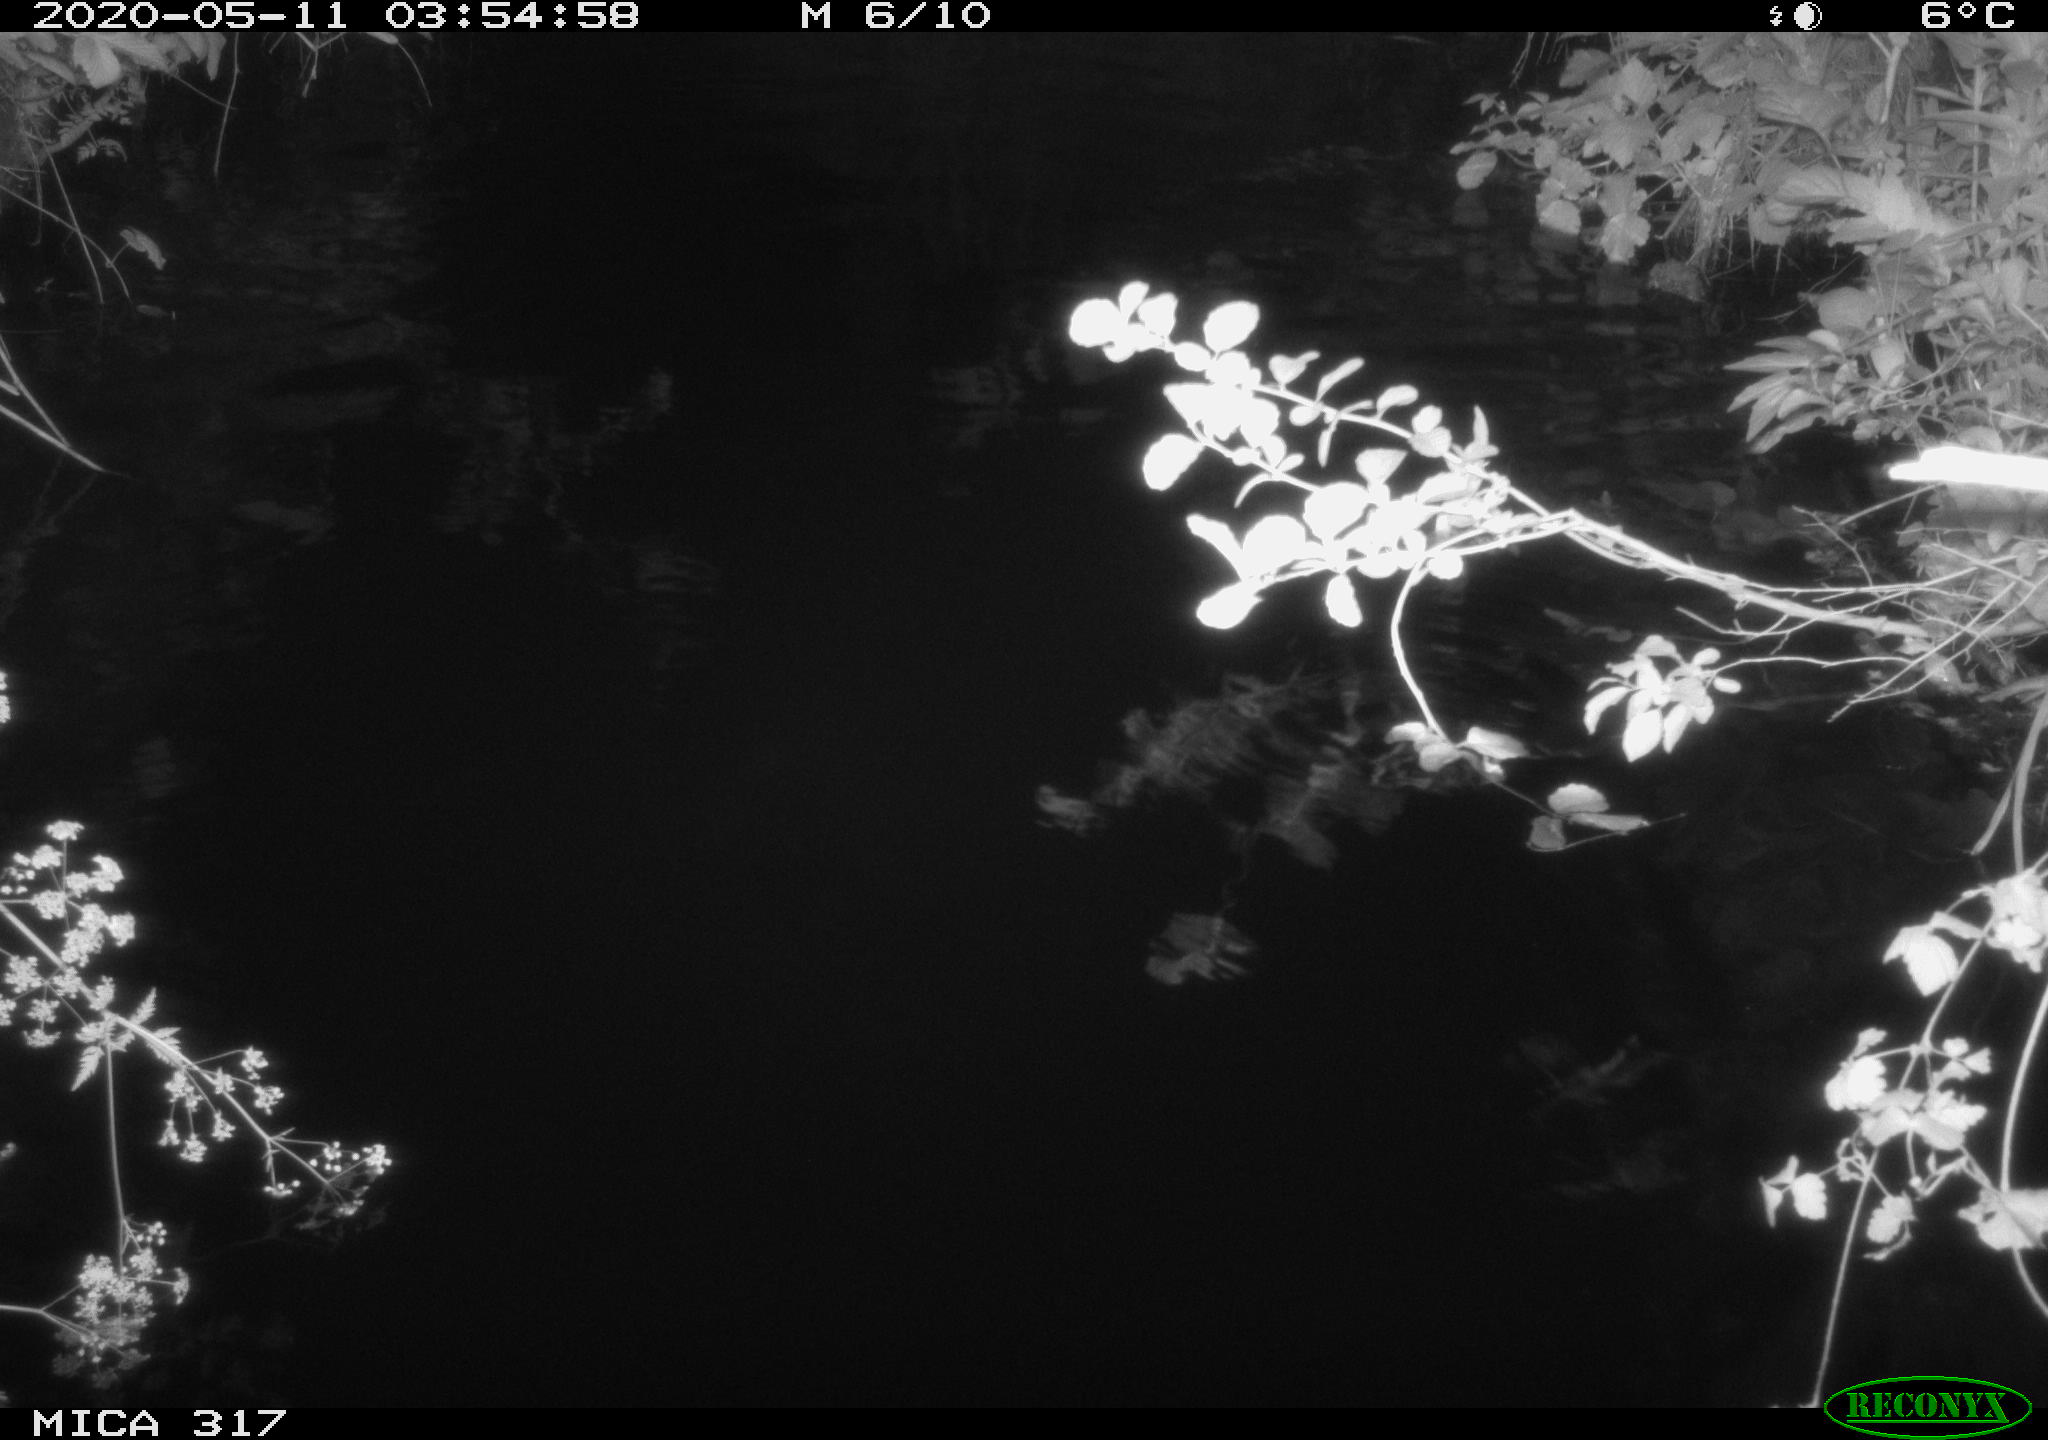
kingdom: Animalia
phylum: Chordata
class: Aves
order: Anseriformes
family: Anatidae
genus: Anas
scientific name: Anas platyrhynchos
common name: Mallard
